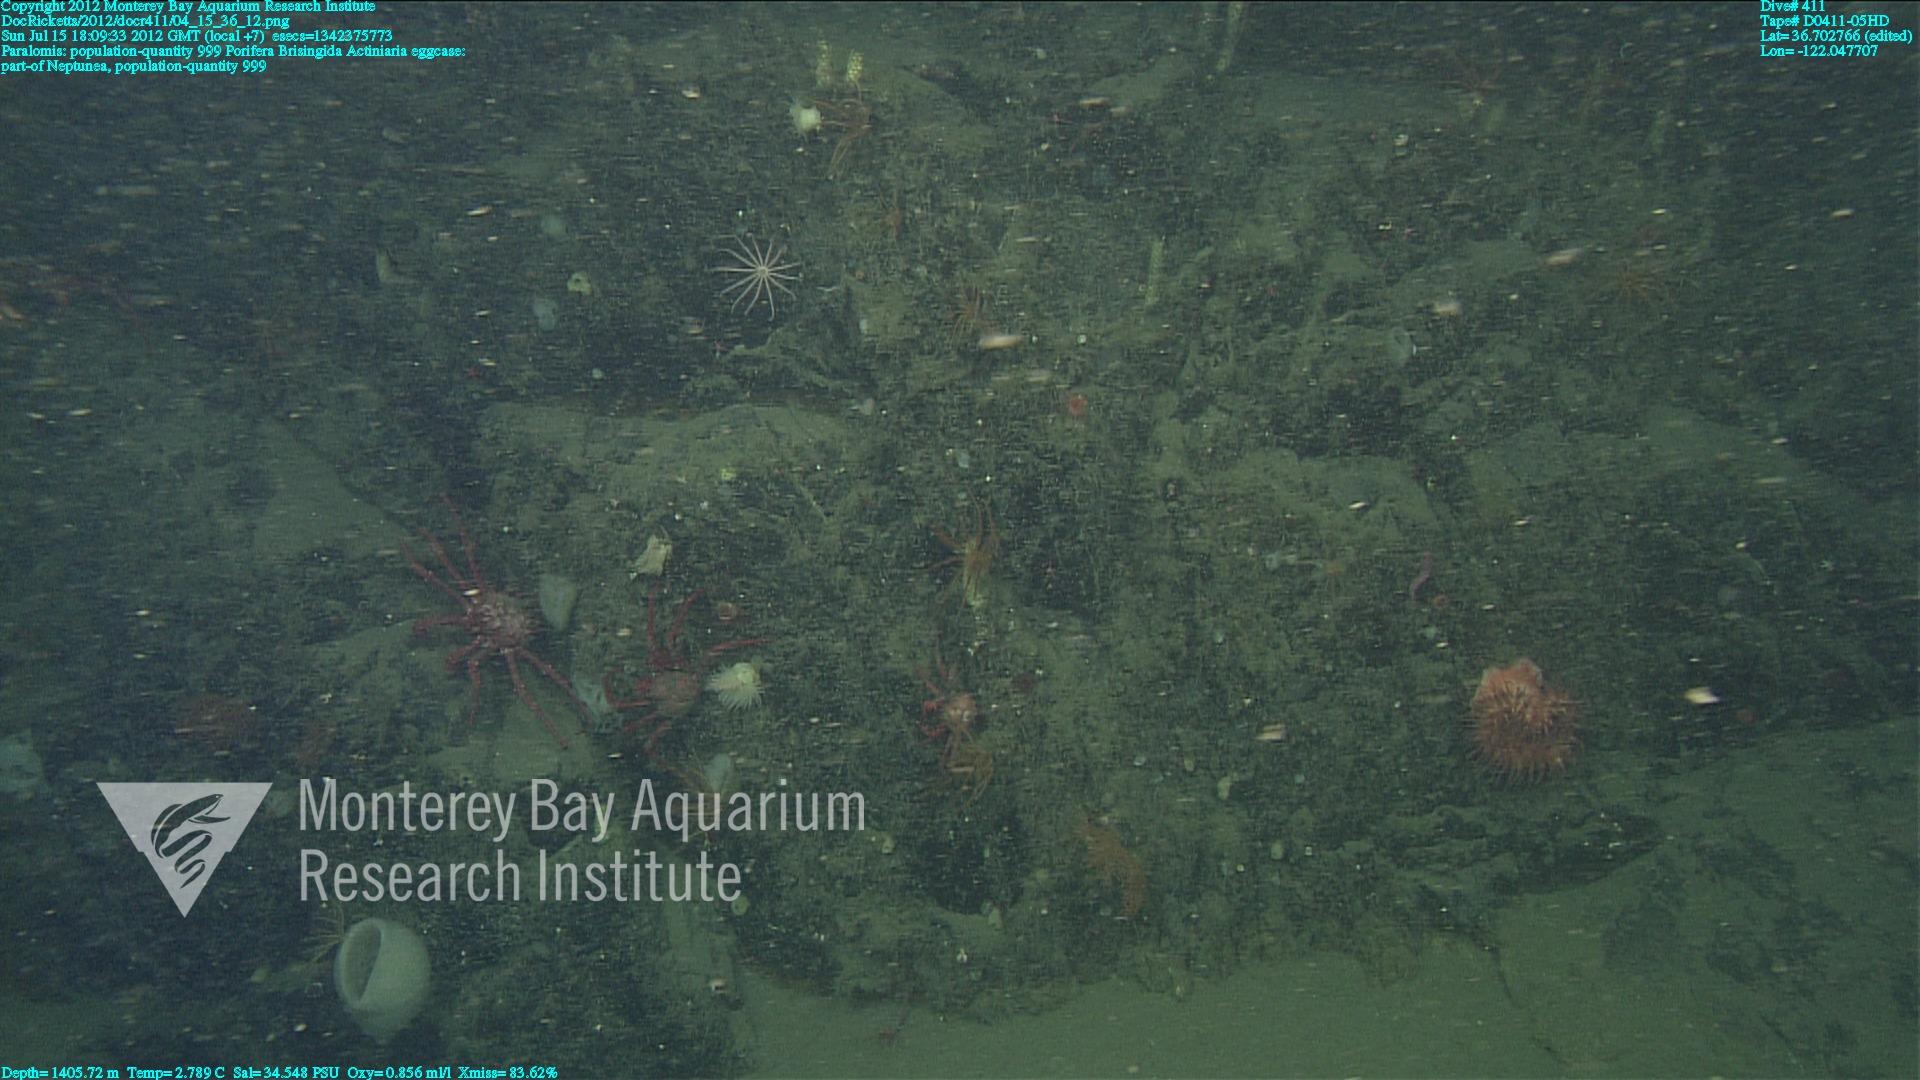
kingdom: Animalia
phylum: Porifera
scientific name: Porifera
